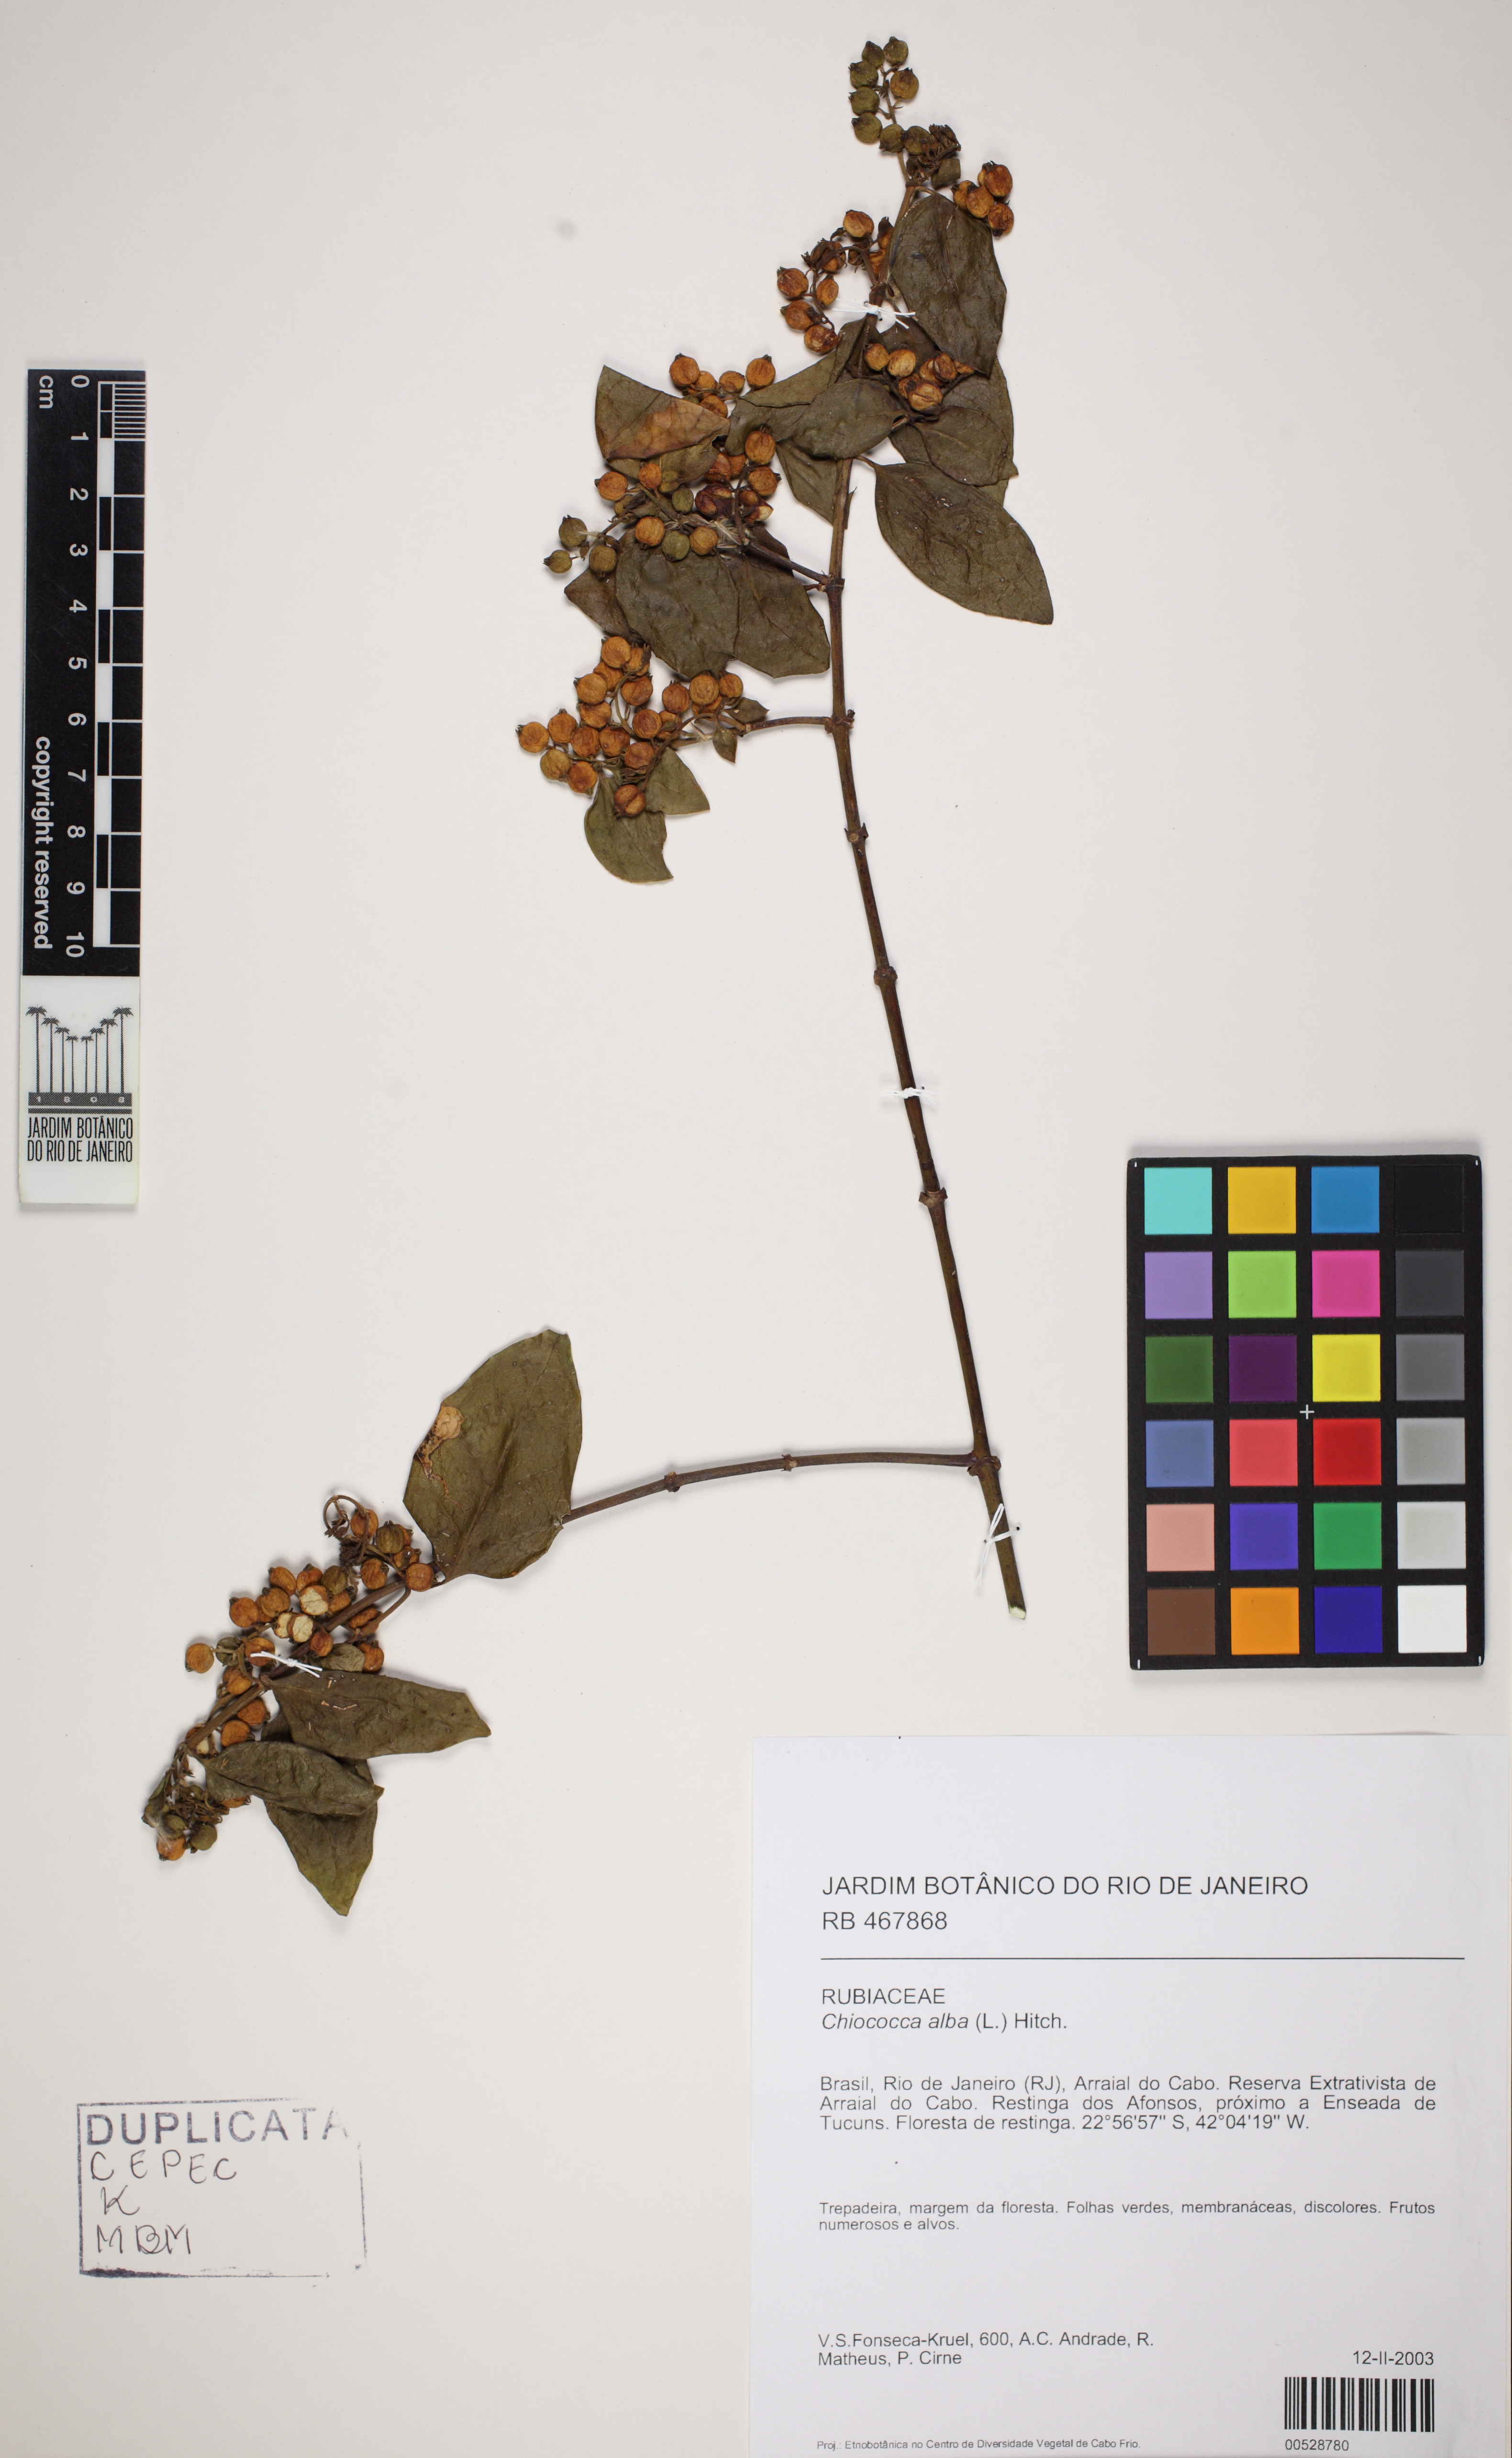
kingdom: Plantae
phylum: Tracheophyta
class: Magnoliopsida
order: Gentianales
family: Rubiaceae
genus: Chiococca
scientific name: Chiococca alba
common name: Snowberry
